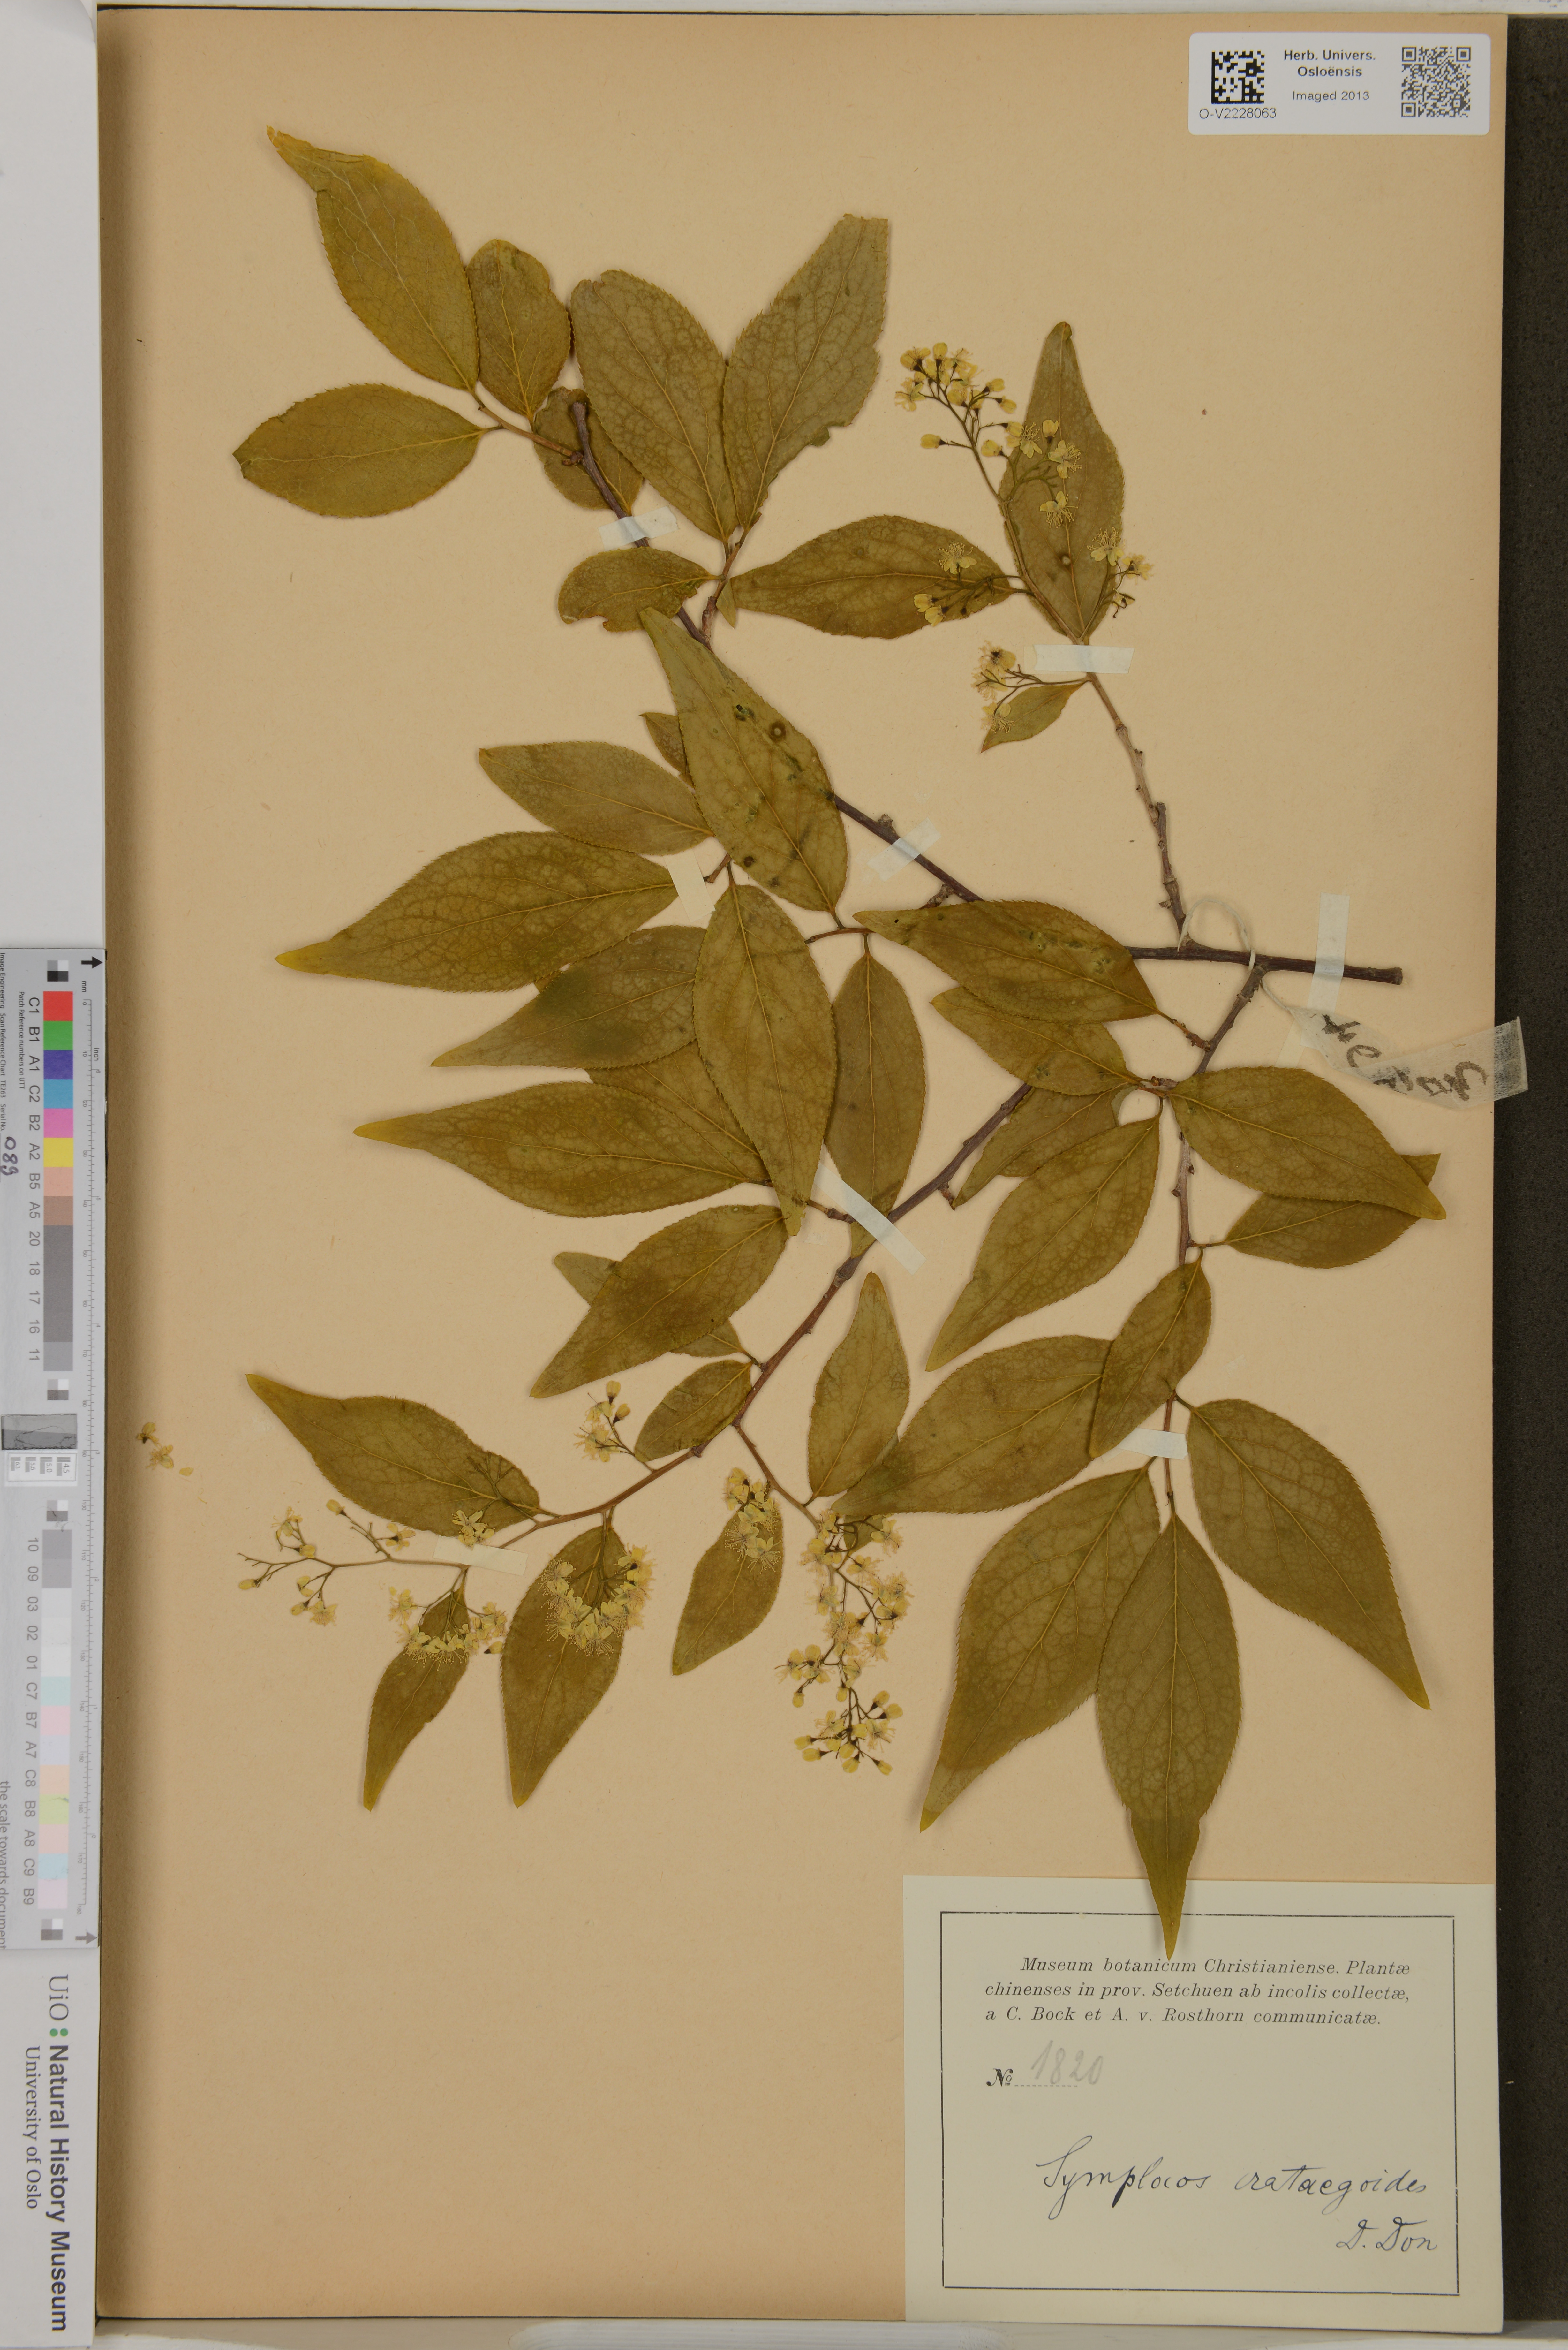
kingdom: Plantae
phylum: Tracheophyta
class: Magnoliopsida
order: Ericales
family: Symplocaceae
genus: Symplocos
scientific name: Symplocos paniculata
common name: Sapphire-berry
